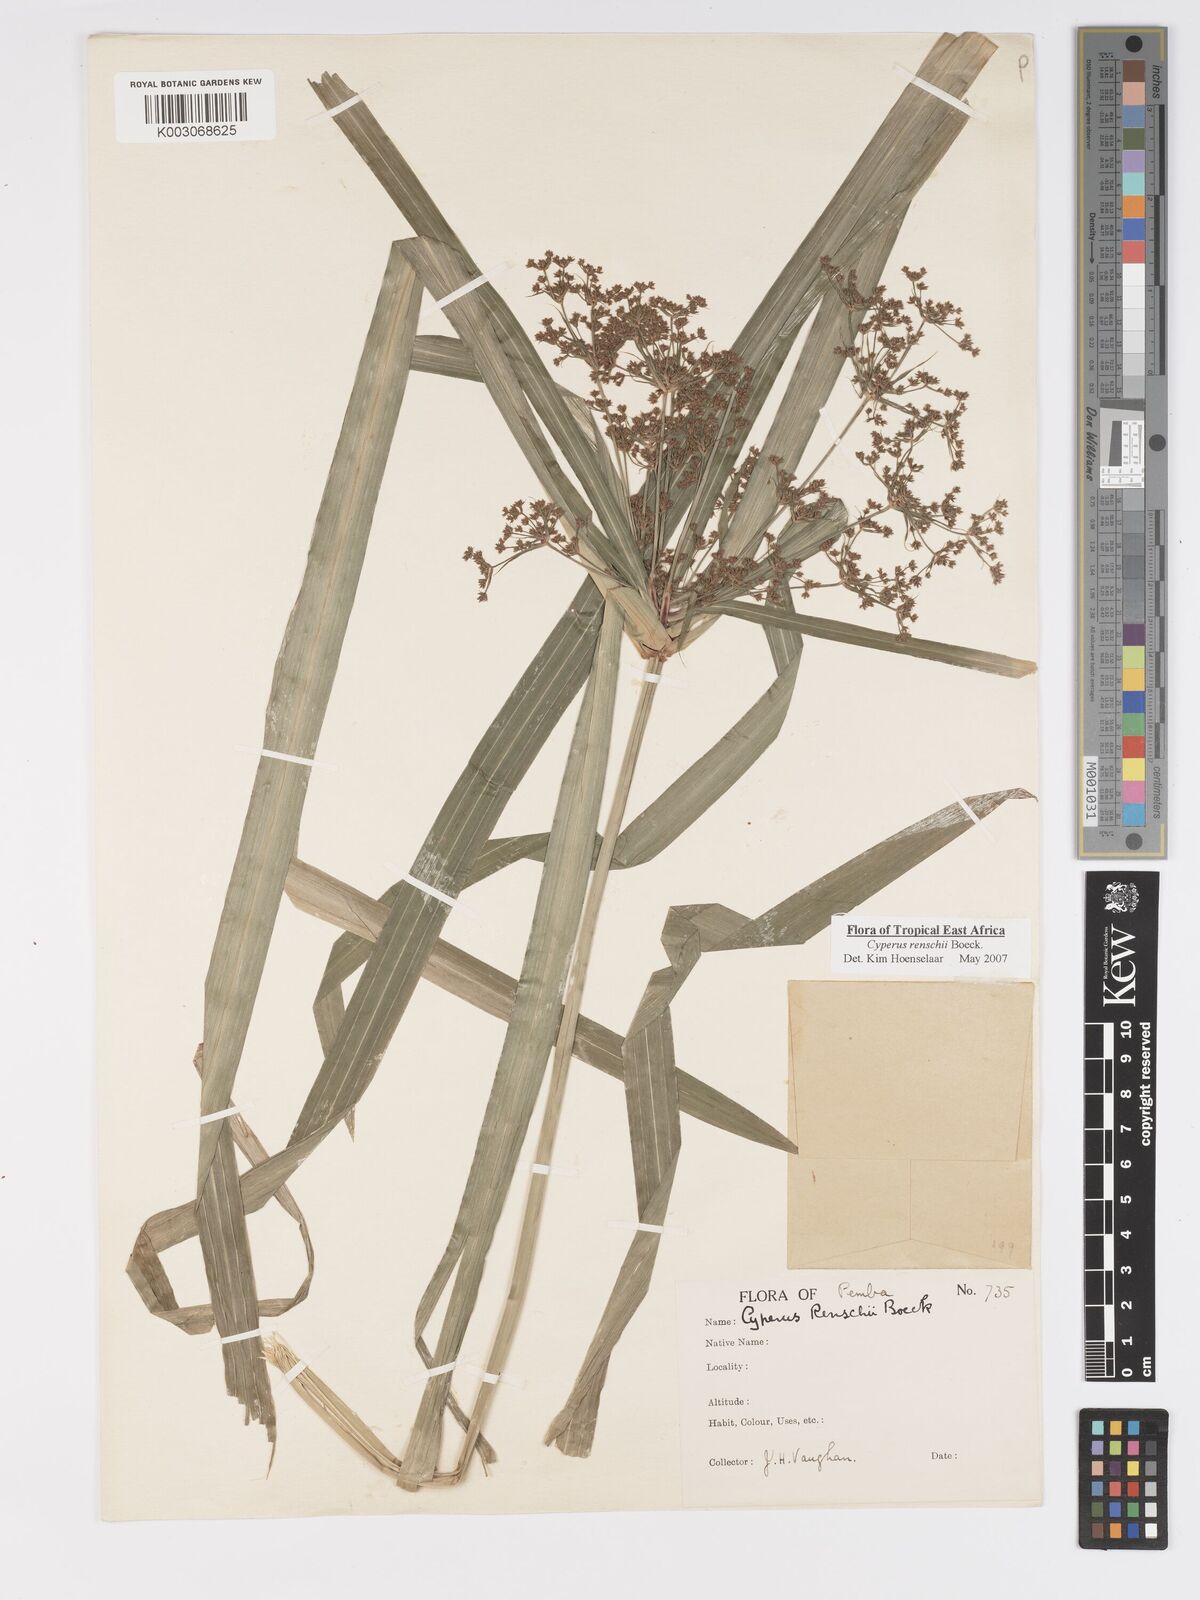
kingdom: Plantae
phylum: Tracheophyta
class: Liliopsida
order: Poales
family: Cyperaceae
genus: Cyperus
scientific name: Cyperus renschii
